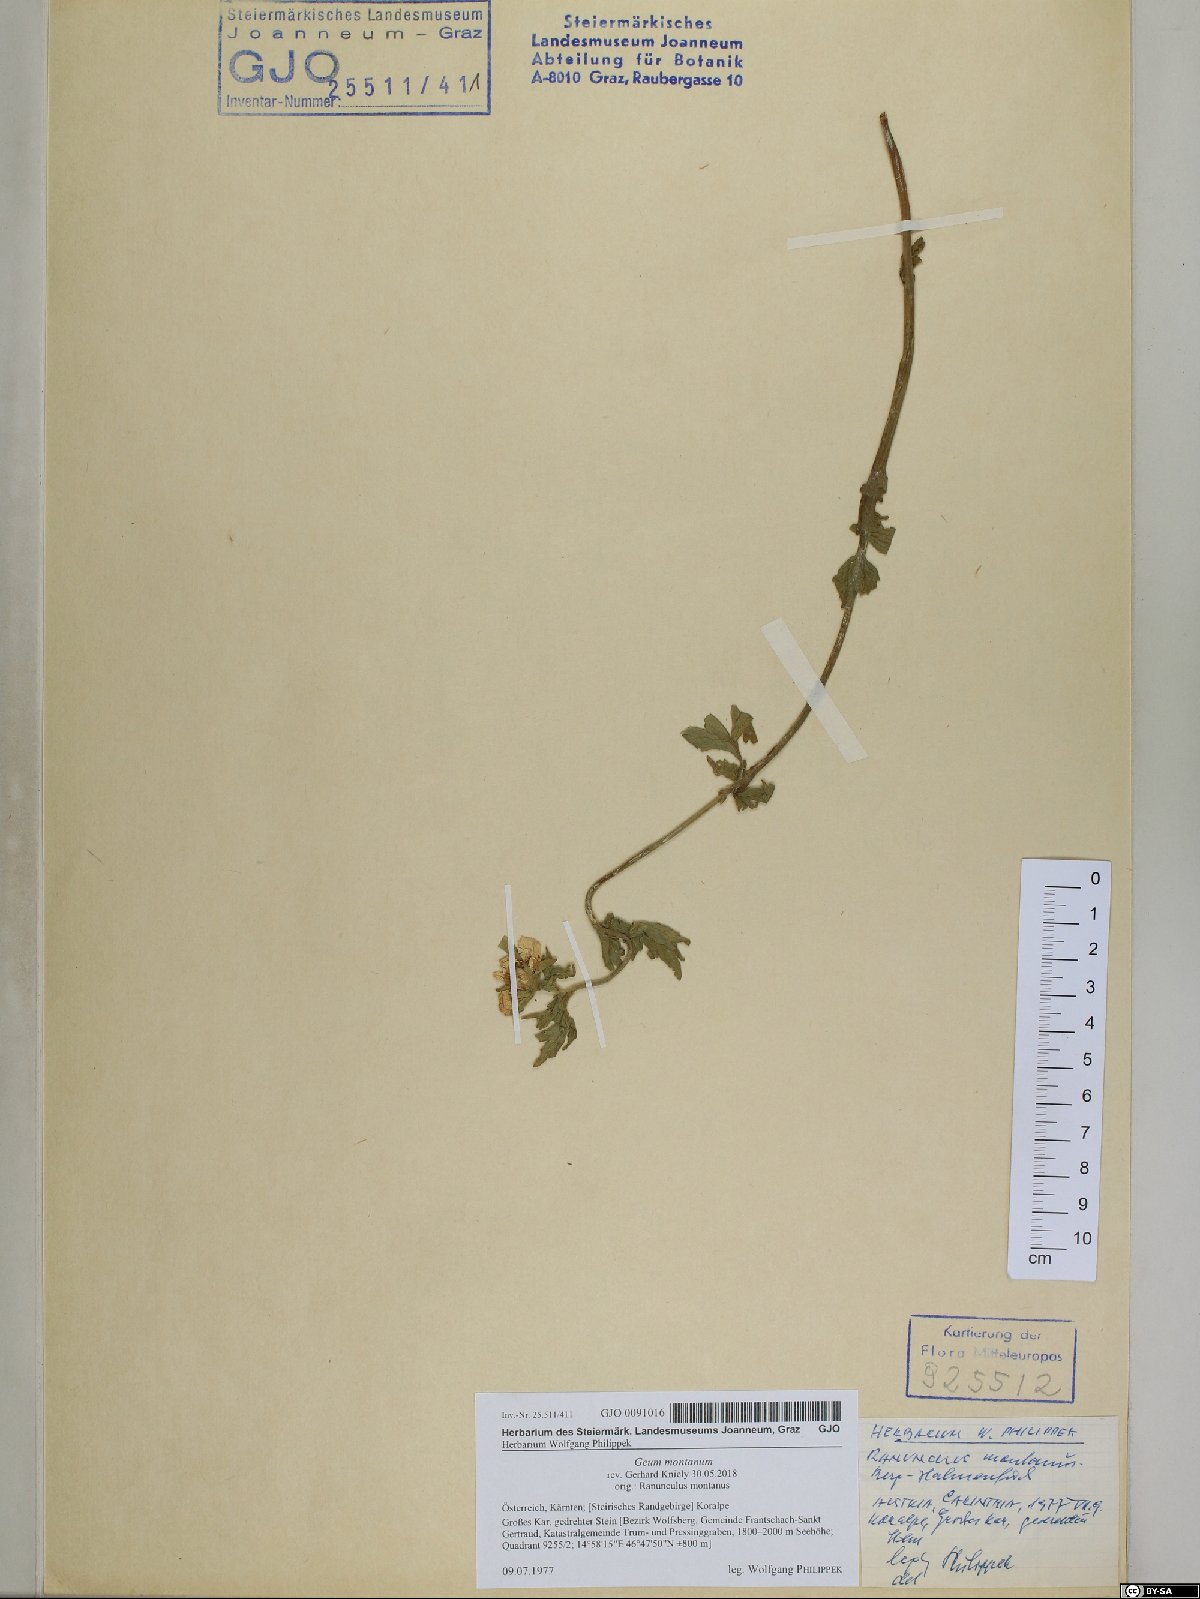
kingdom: Plantae
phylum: Tracheophyta
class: Magnoliopsida
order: Rosales
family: Rosaceae
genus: Geum
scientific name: Geum montanum
